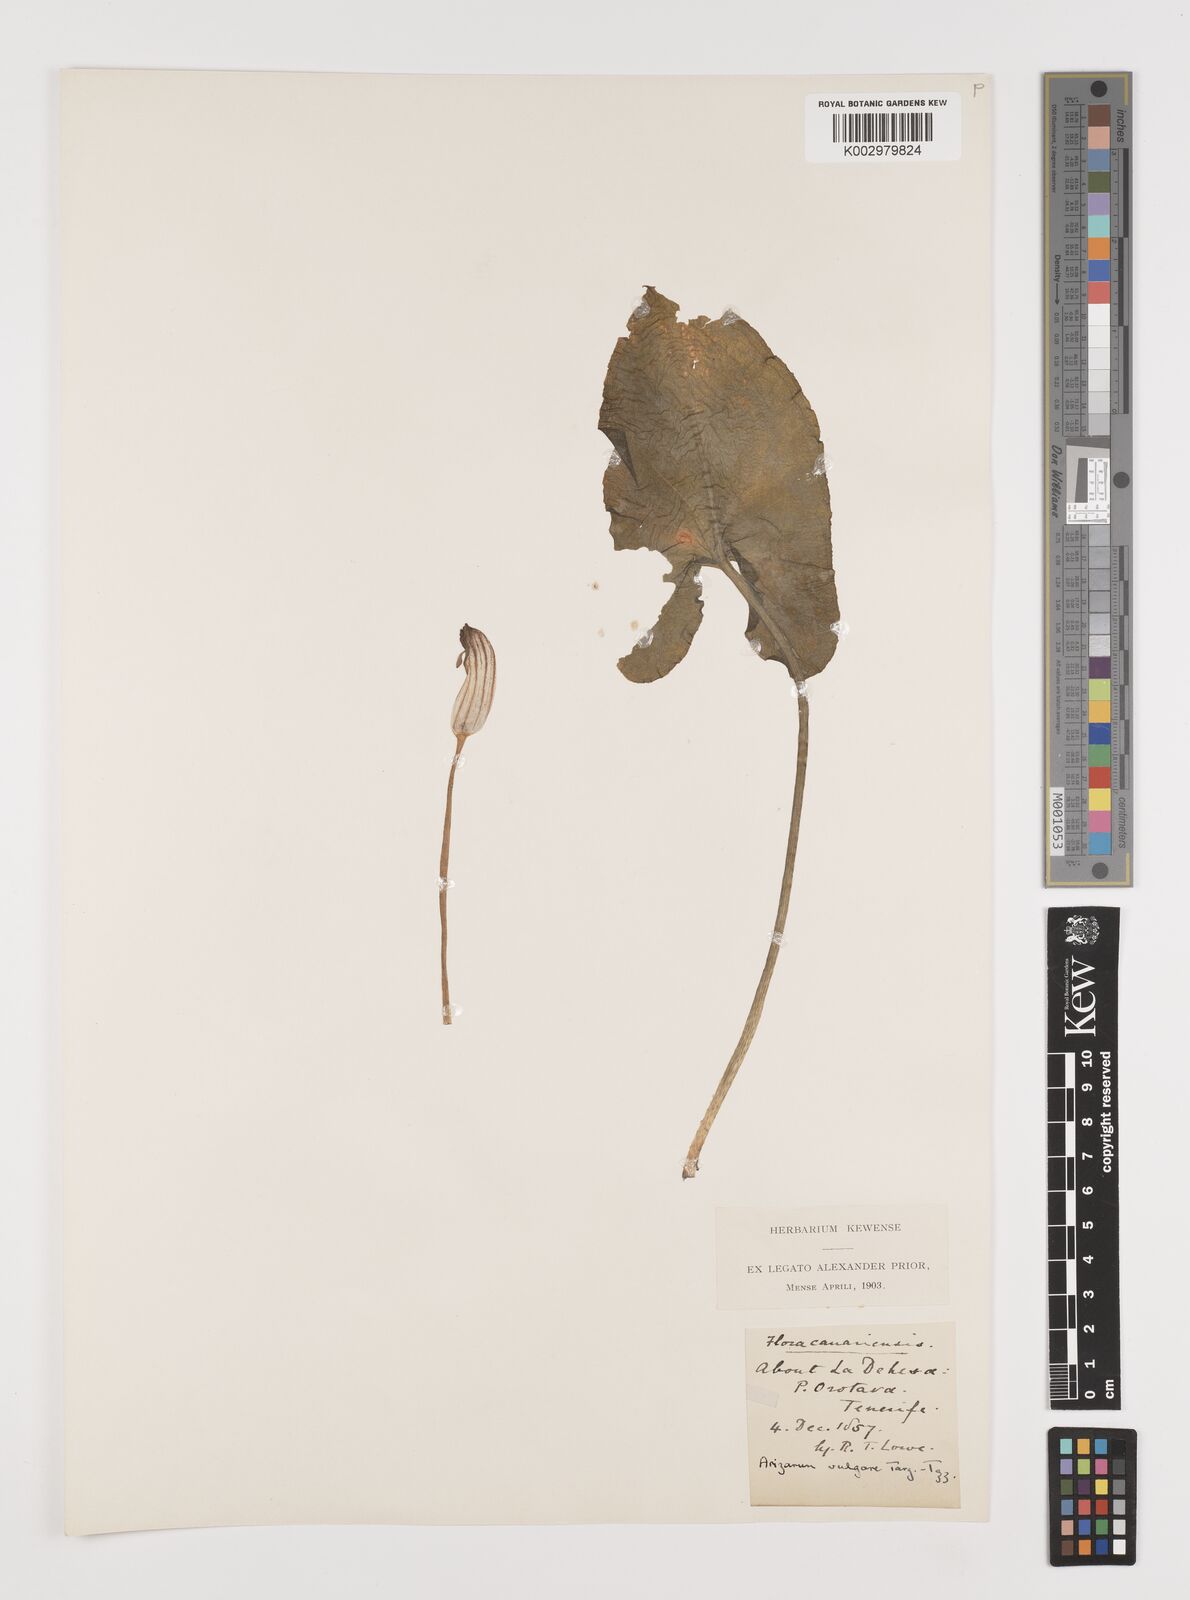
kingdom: Plantae
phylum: Tracheophyta
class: Liliopsida
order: Alismatales
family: Araceae
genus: Arisarum
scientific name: Arisarum vulgare
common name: Common arisarum
